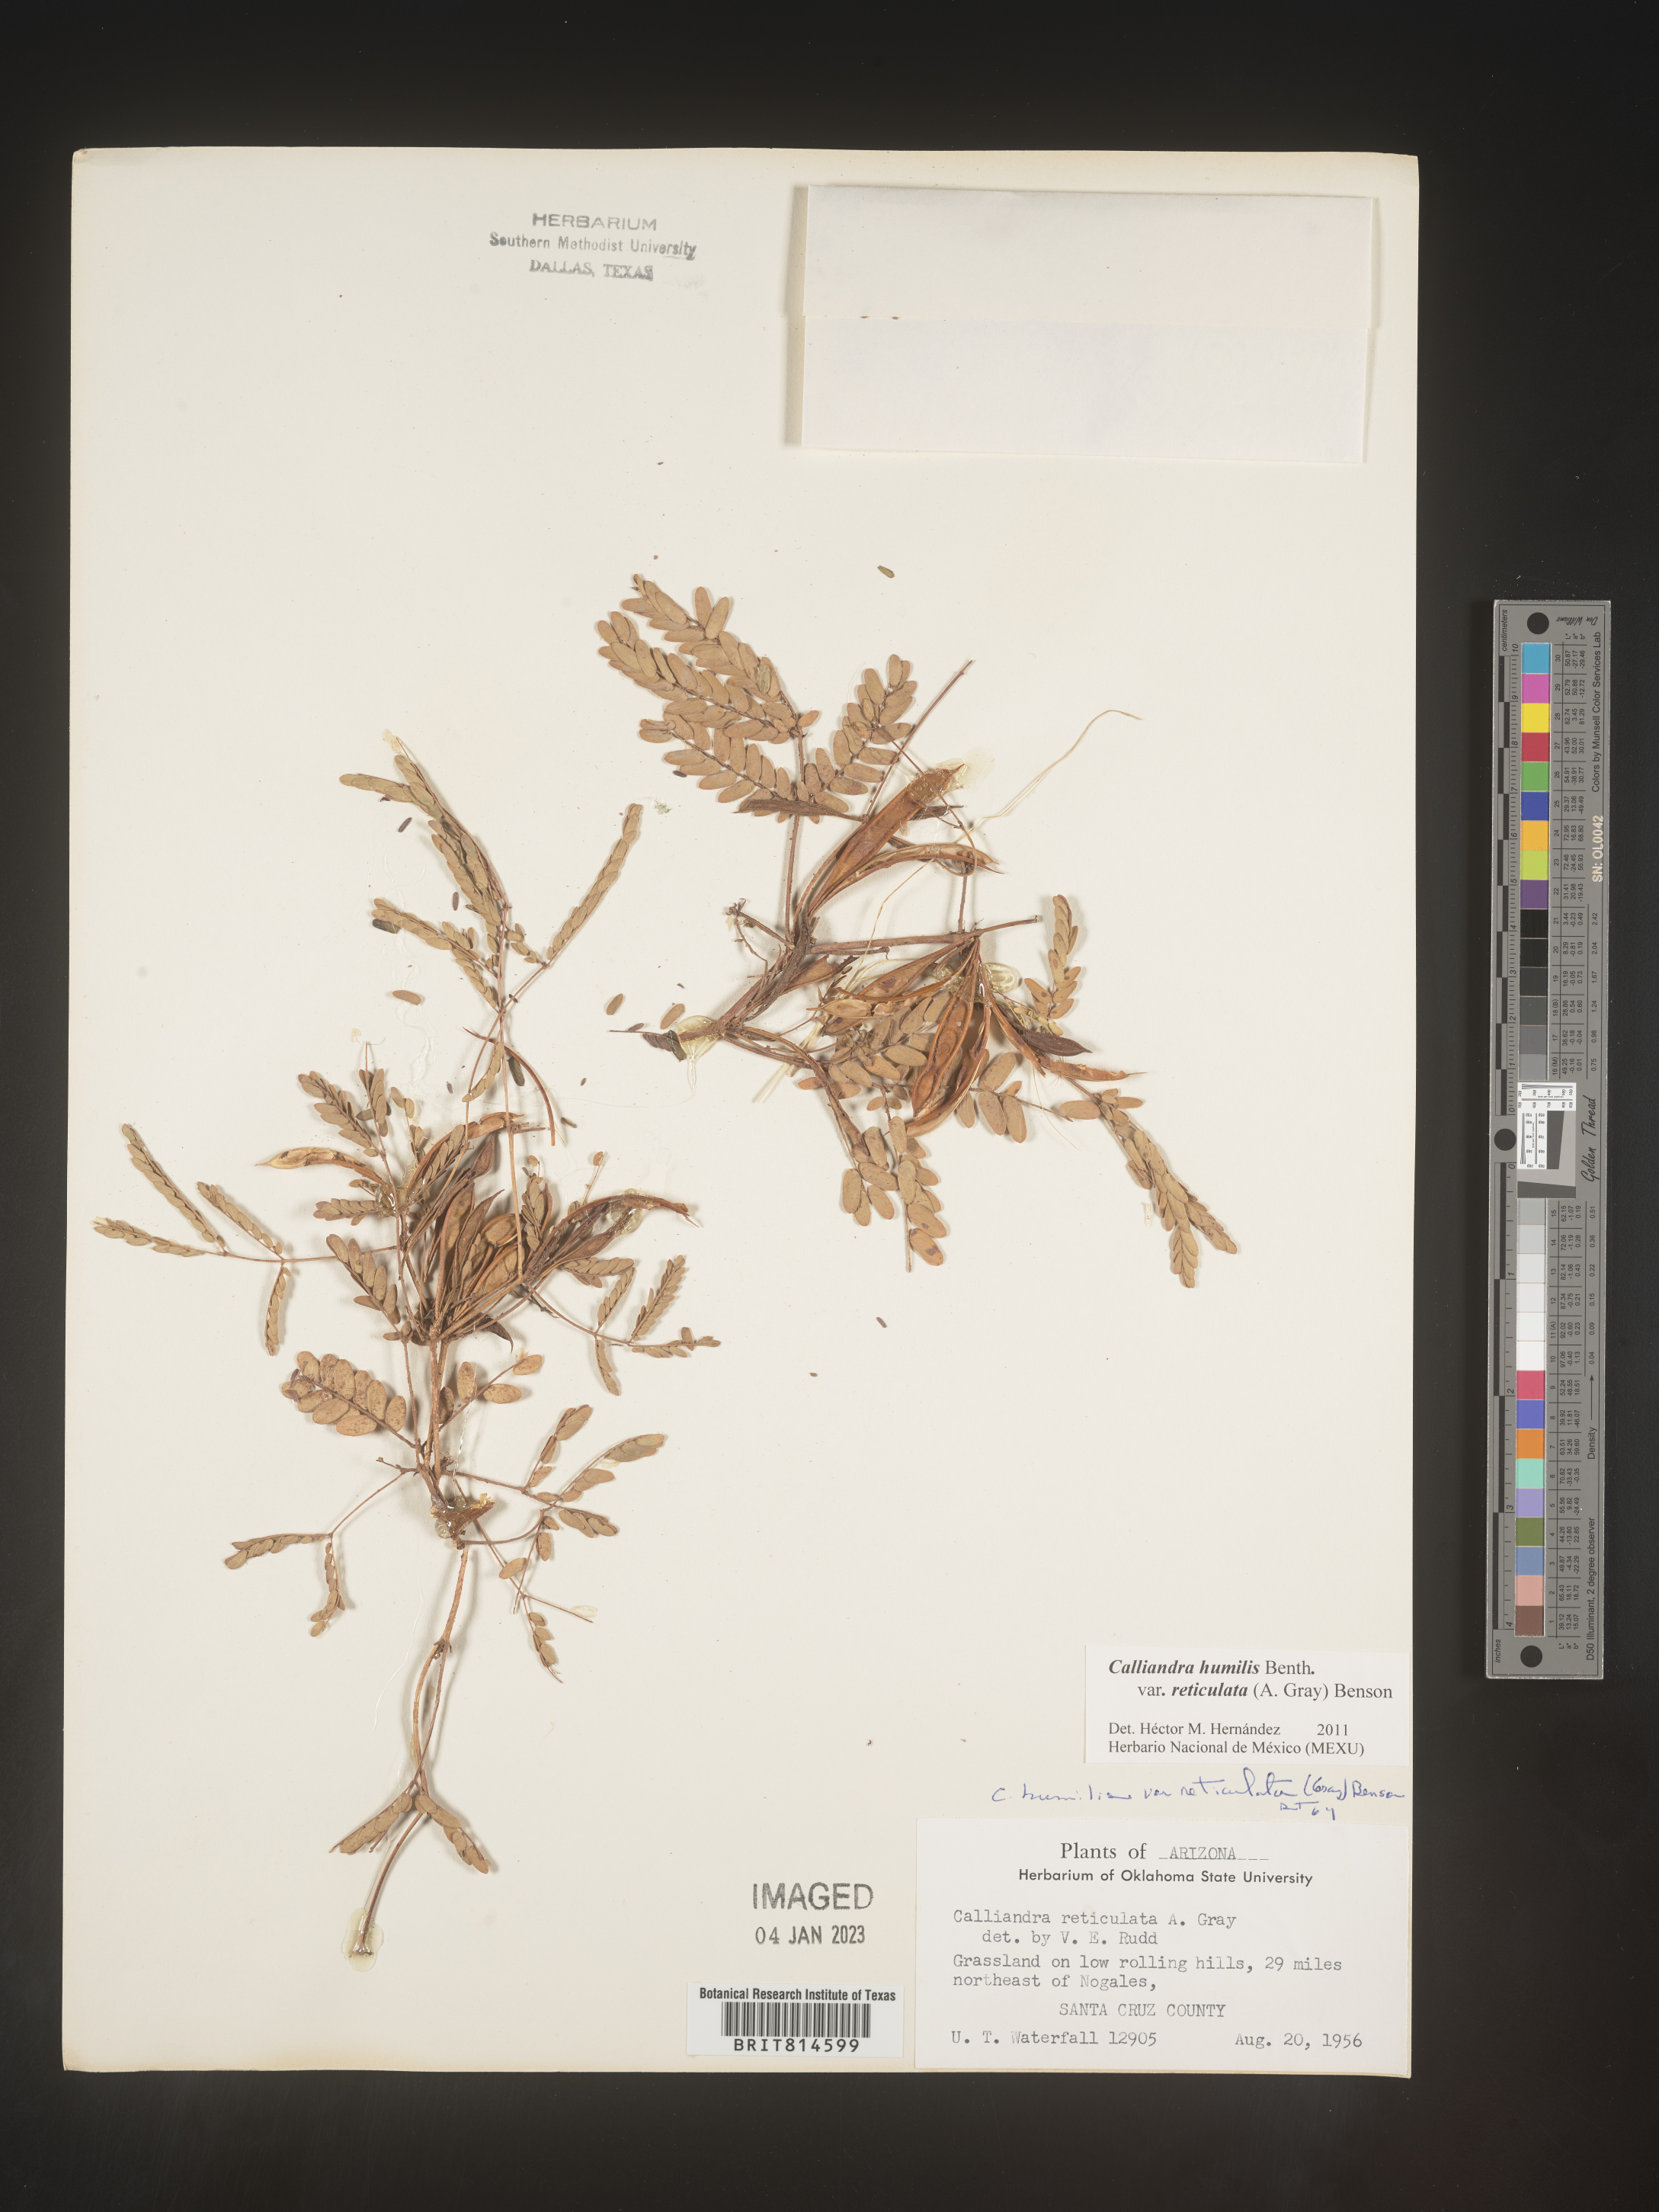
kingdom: Plantae
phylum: Tracheophyta
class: Magnoliopsida
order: Fabales
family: Fabaceae
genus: Calliandra
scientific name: Calliandra
